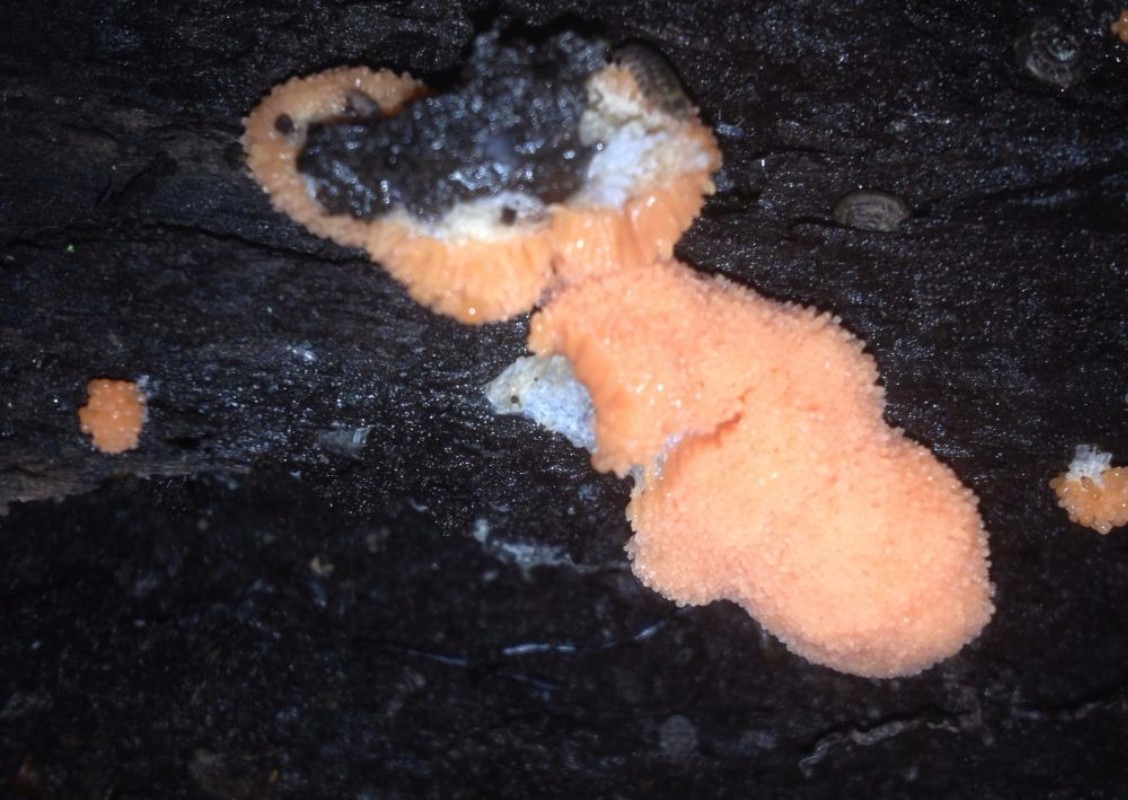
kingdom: Protozoa
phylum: Mycetozoa
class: Myxomycetes
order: Cribrariales
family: Tubiferaceae
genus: Tubifera
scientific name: Tubifera ferruginosa
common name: kanel-støvrør
